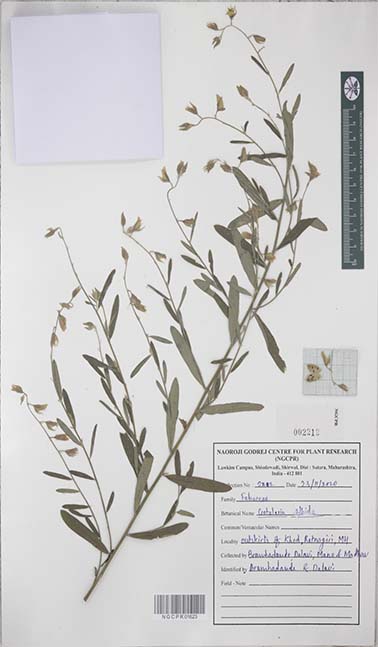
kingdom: Plantae
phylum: Tracheophyta
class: Magnoliopsida
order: Fabales
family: Fabaceae
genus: Crotalaria
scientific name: Crotalaria albida
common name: Taiwan crotalaria
